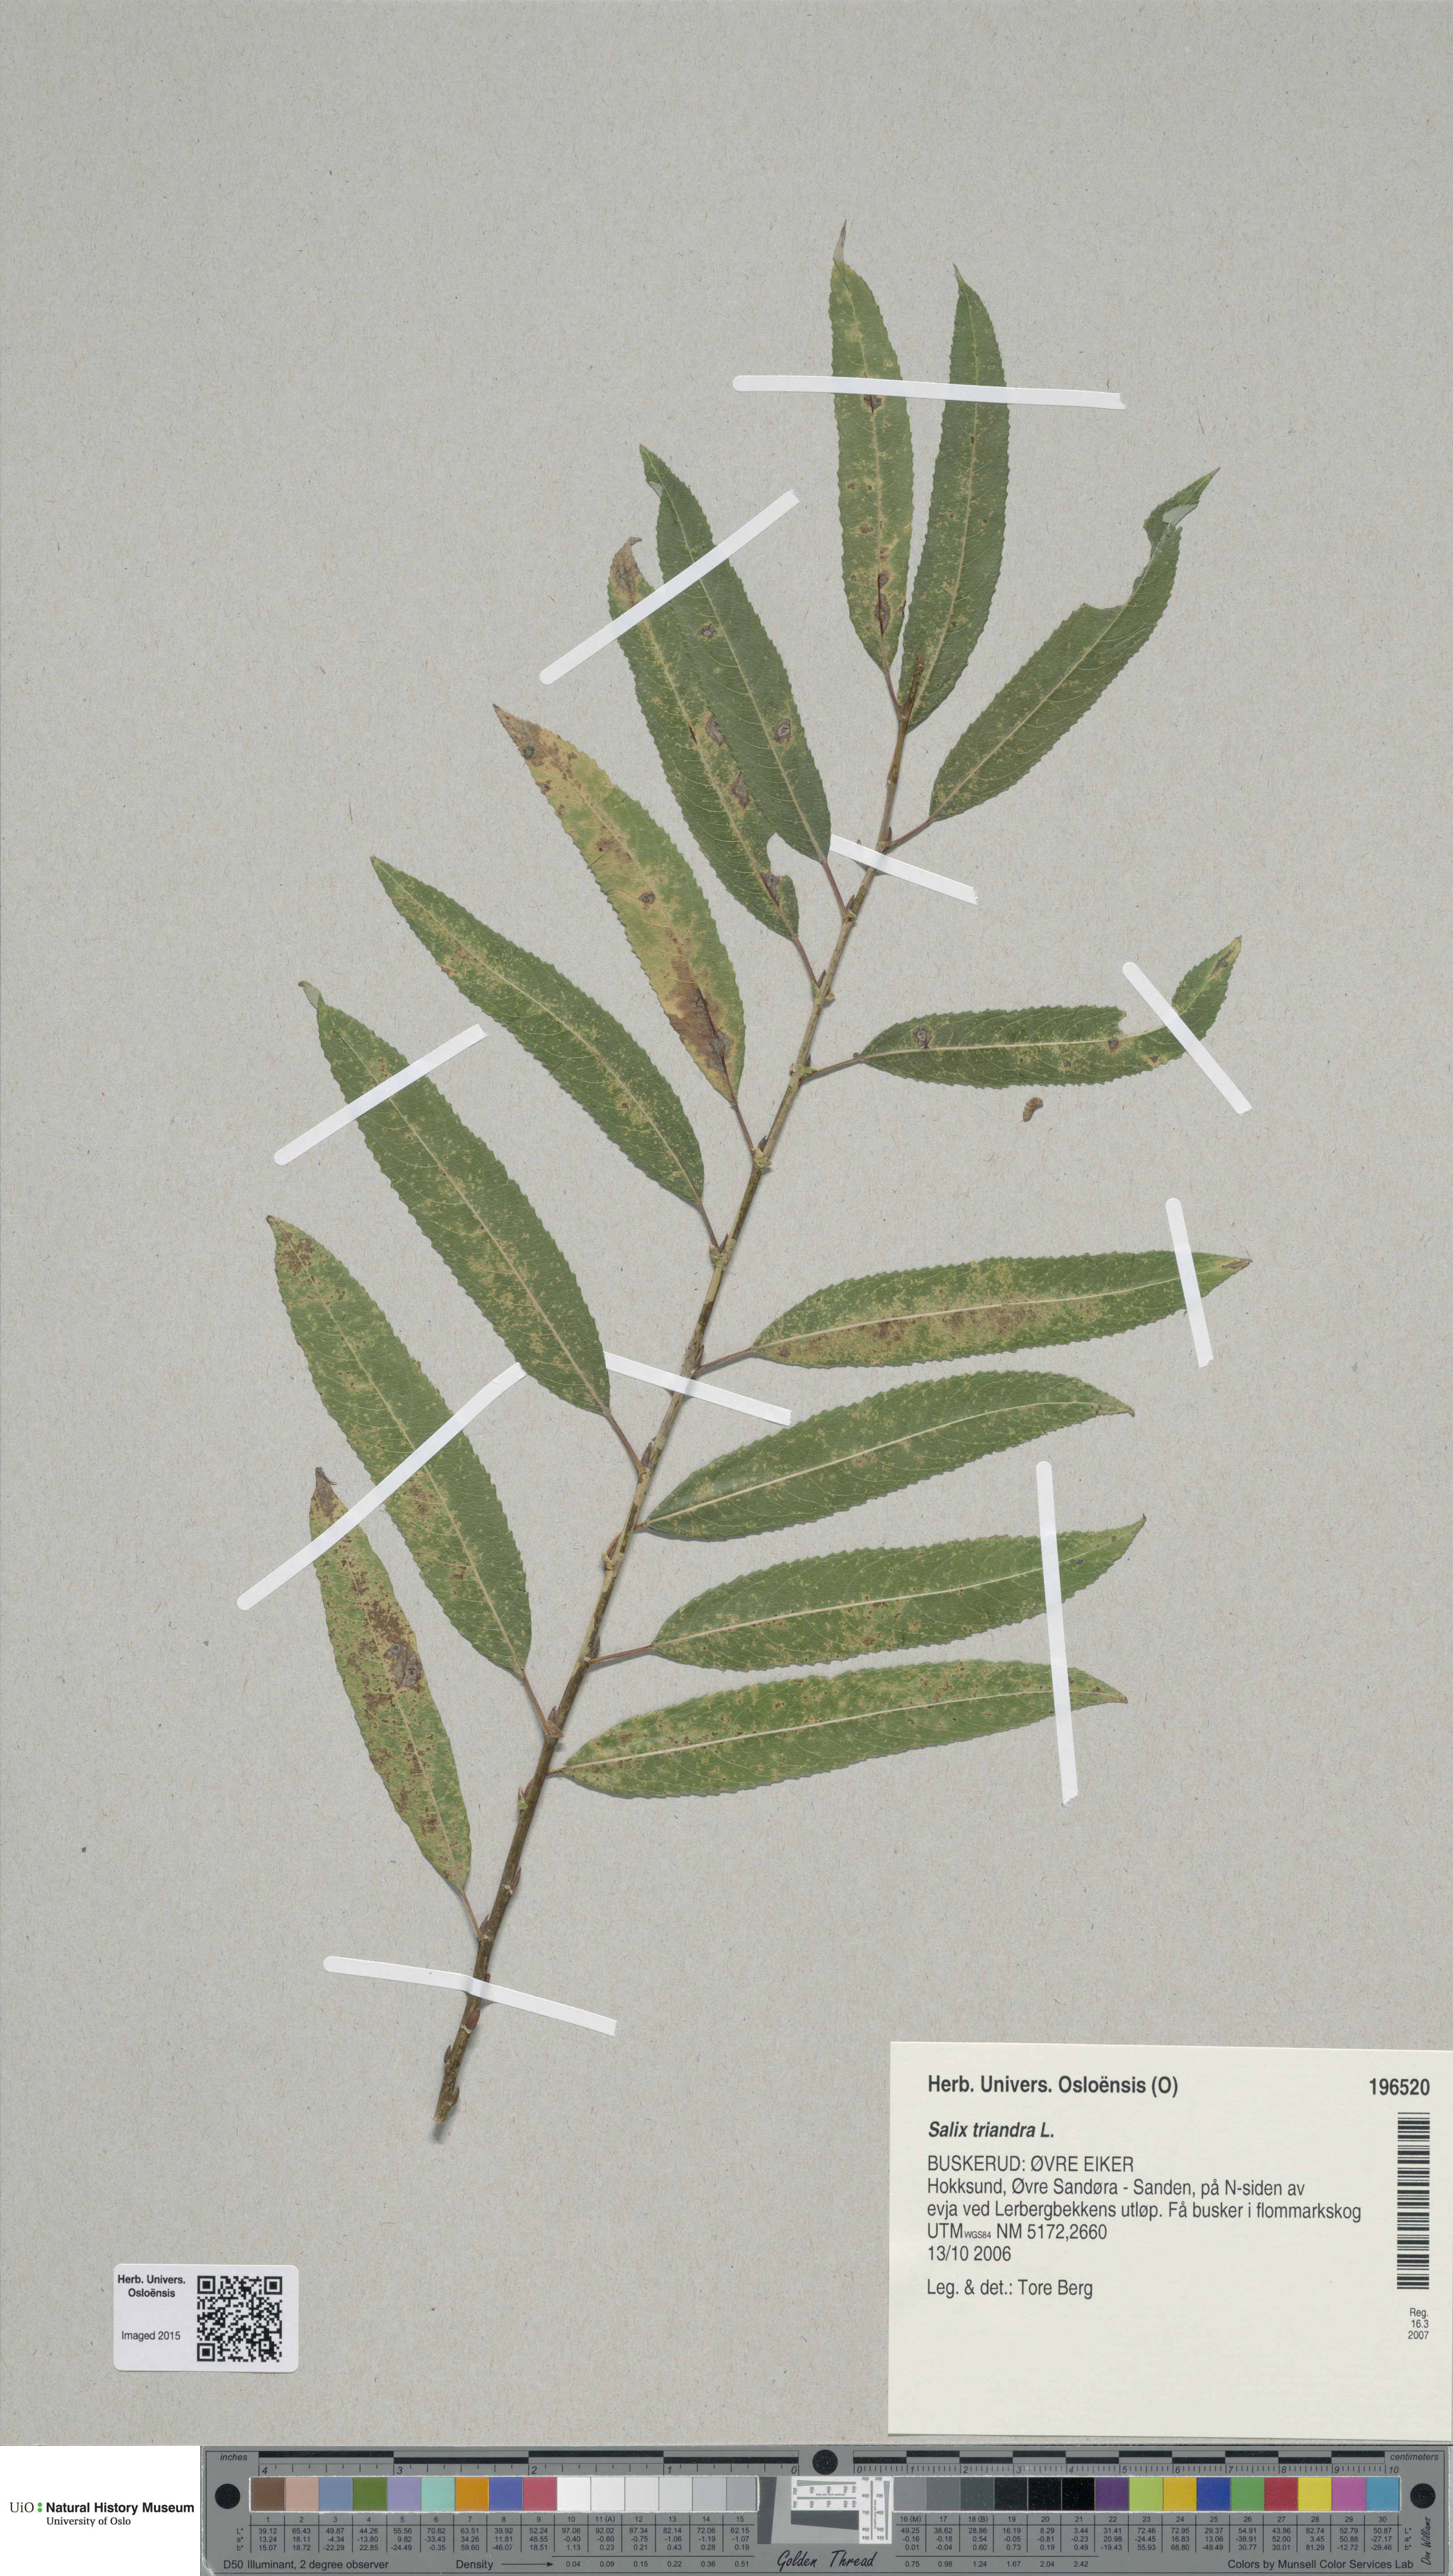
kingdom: Plantae
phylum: Tracheophyta
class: Magnoliopsida
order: Malpighiales
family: Salicaceae
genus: Salix
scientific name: Salix triandra
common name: Almond willow
